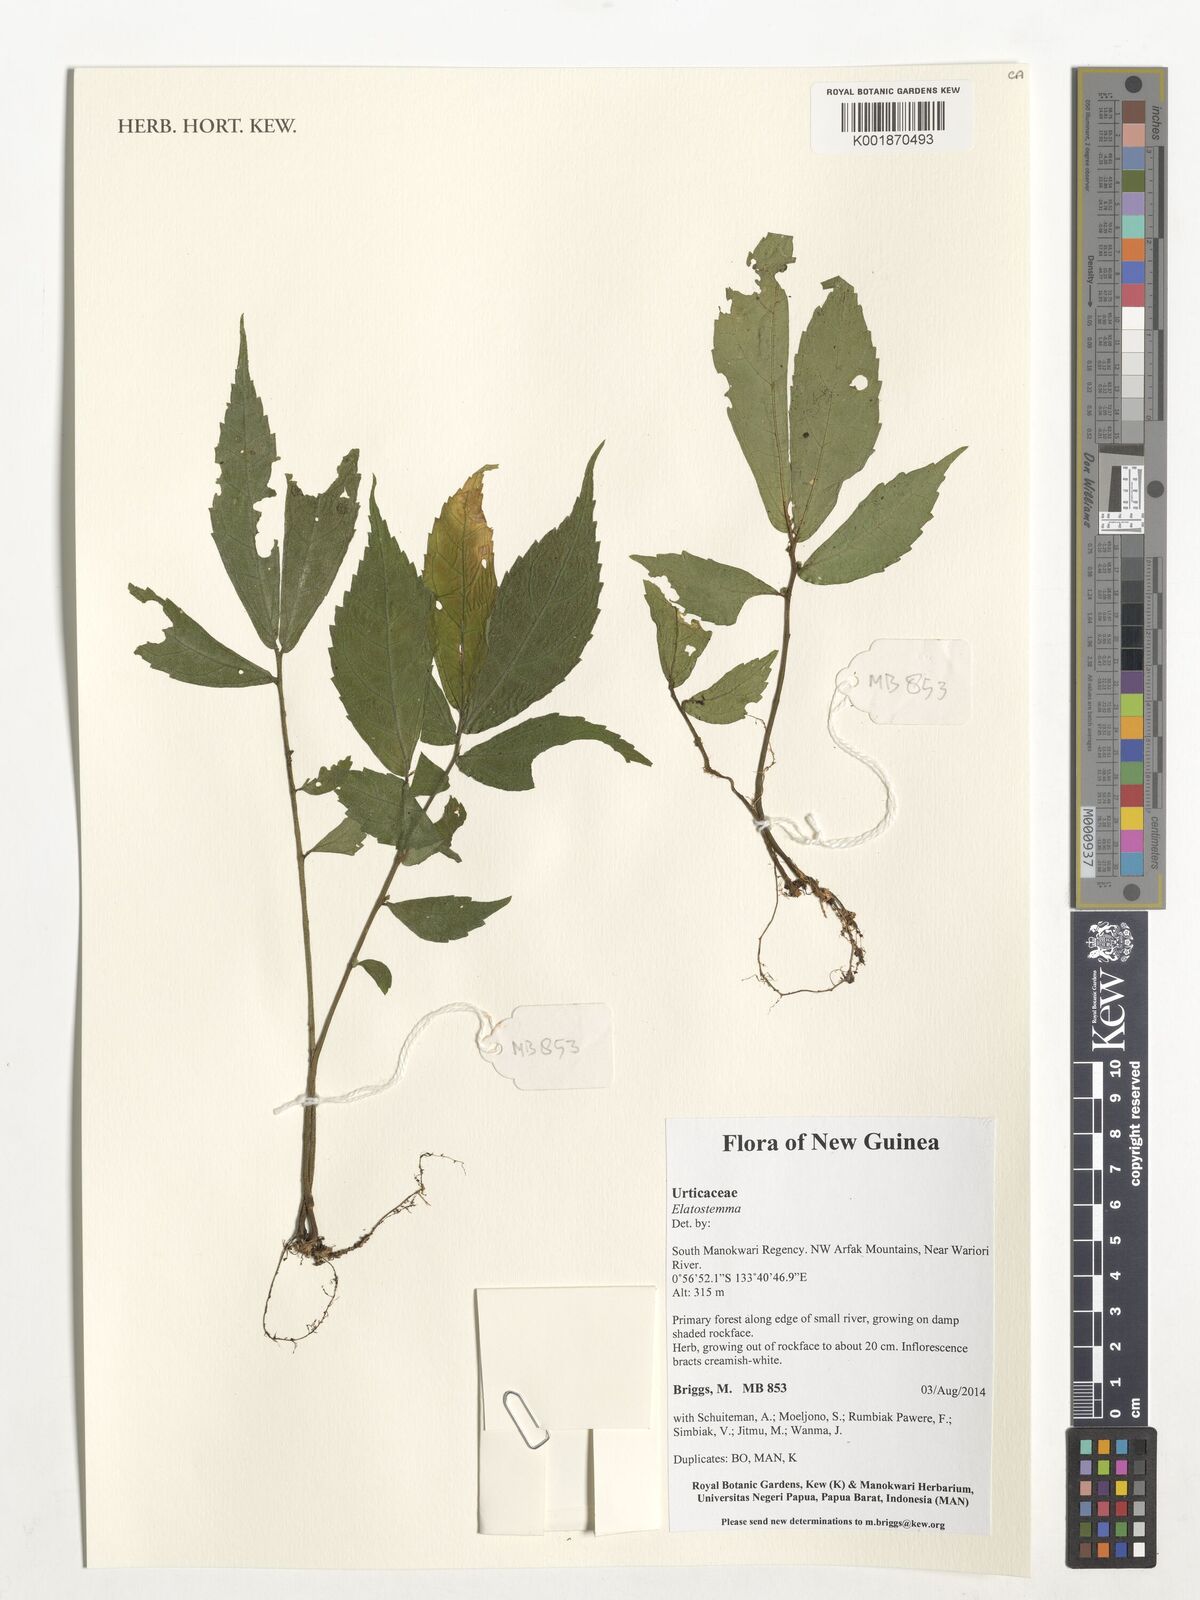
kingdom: Plantae
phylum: Tracheophyta
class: Magnoliopsida
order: Rosales
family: Urticaceae
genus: Elatostema
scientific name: Elatostema
